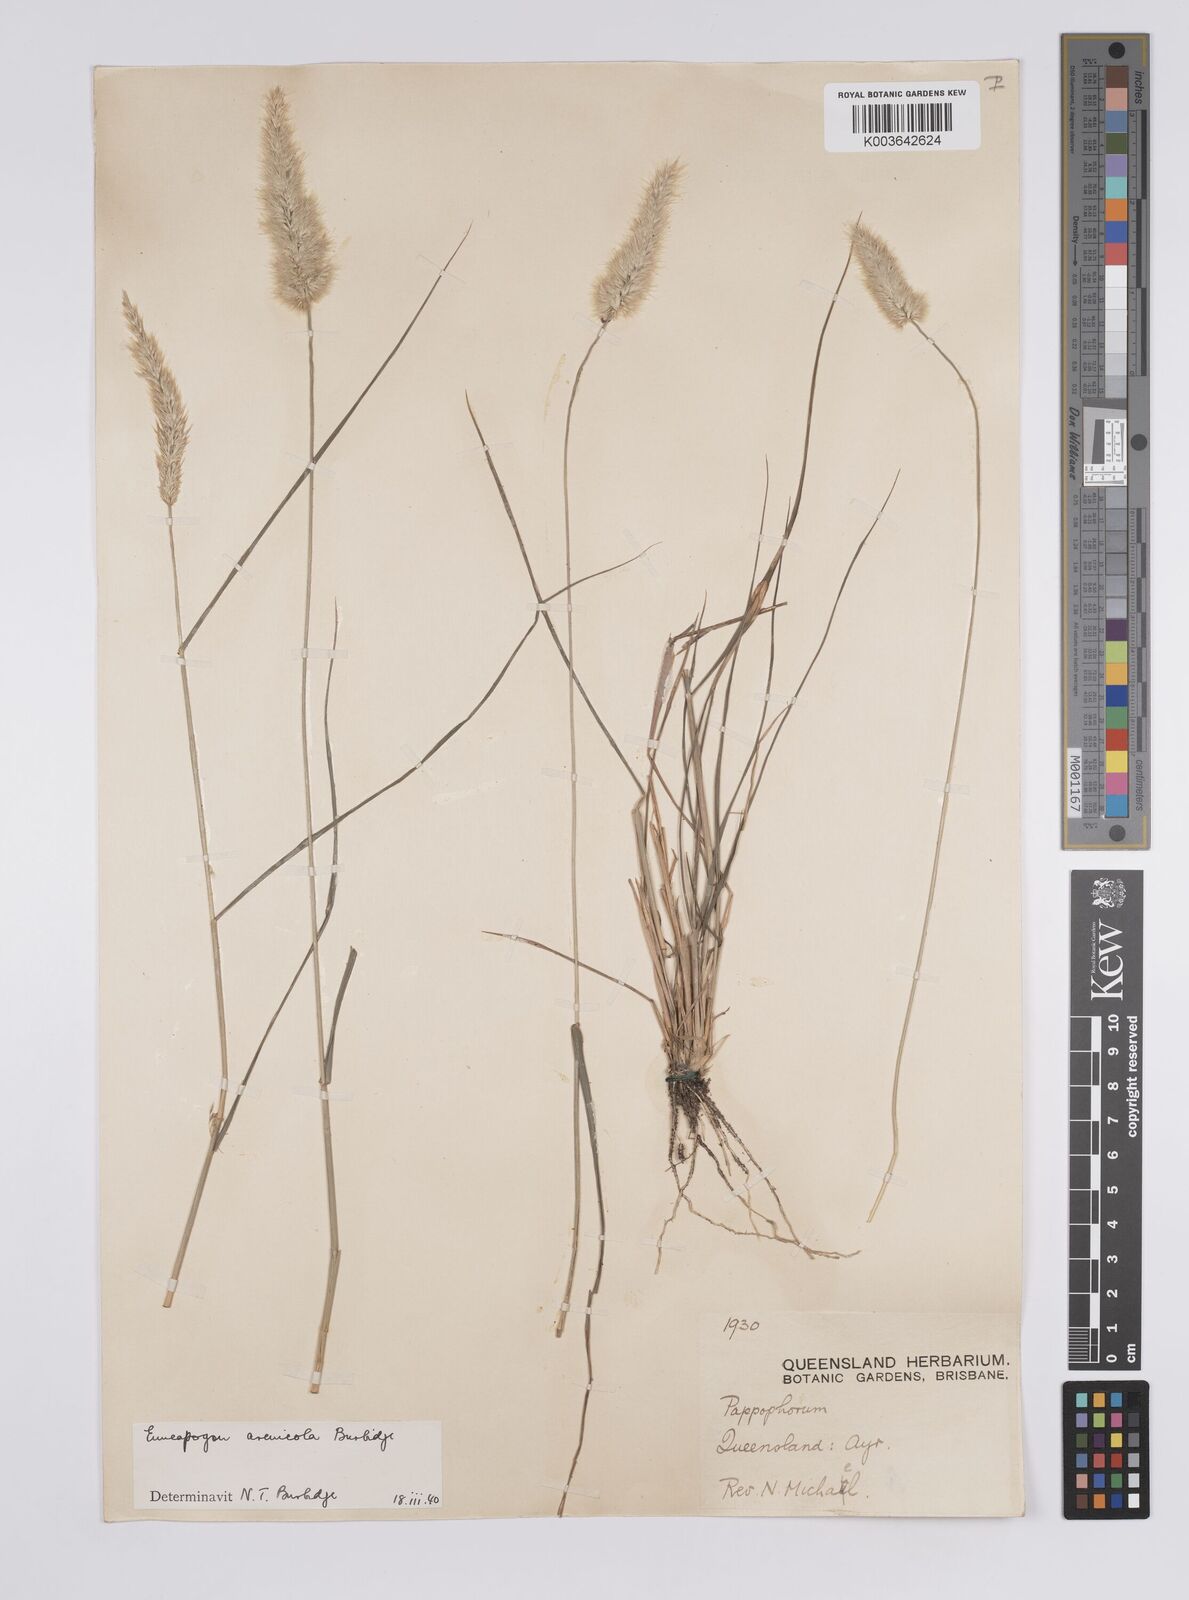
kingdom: Plantae
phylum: Tracheophyta
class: Liliopsida
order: Poales
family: Poaceae
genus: Enneapogon
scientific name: Enneapogon nigricans
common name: Pappus grass
